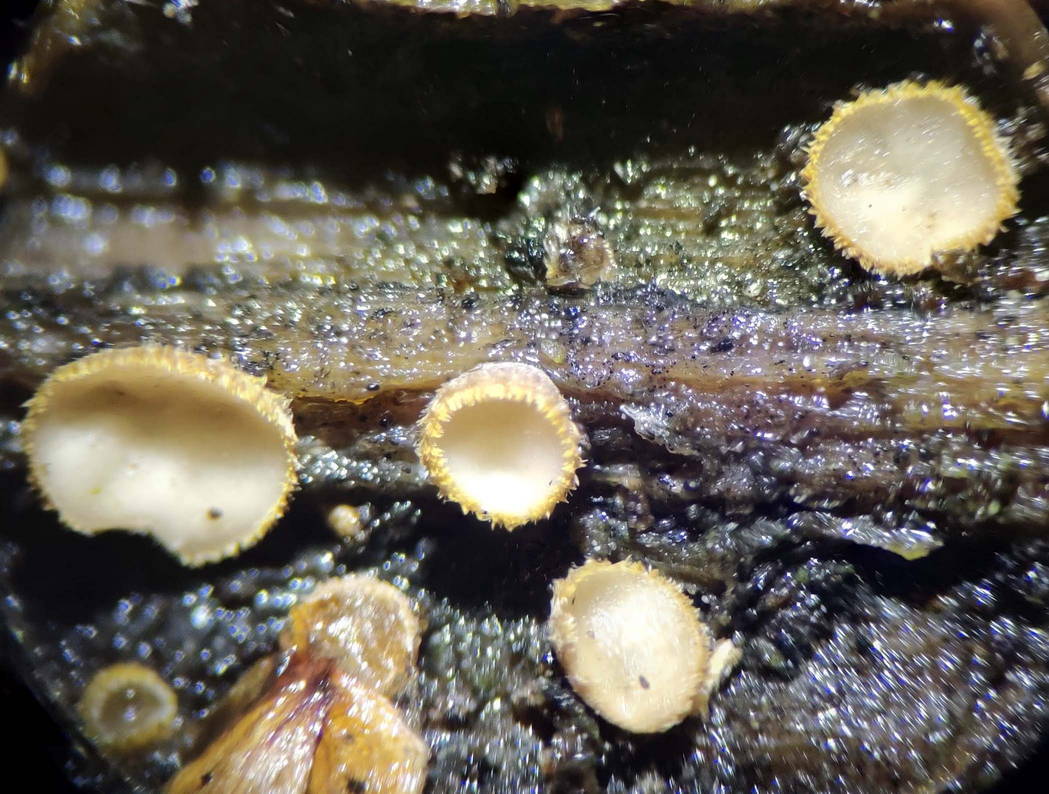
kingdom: Fungi
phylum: Ascomycota
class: Leotiomycetes
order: Helotiales
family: Lachnaceae
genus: Trichopeziza
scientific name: Trichopeziza subsulphurea
